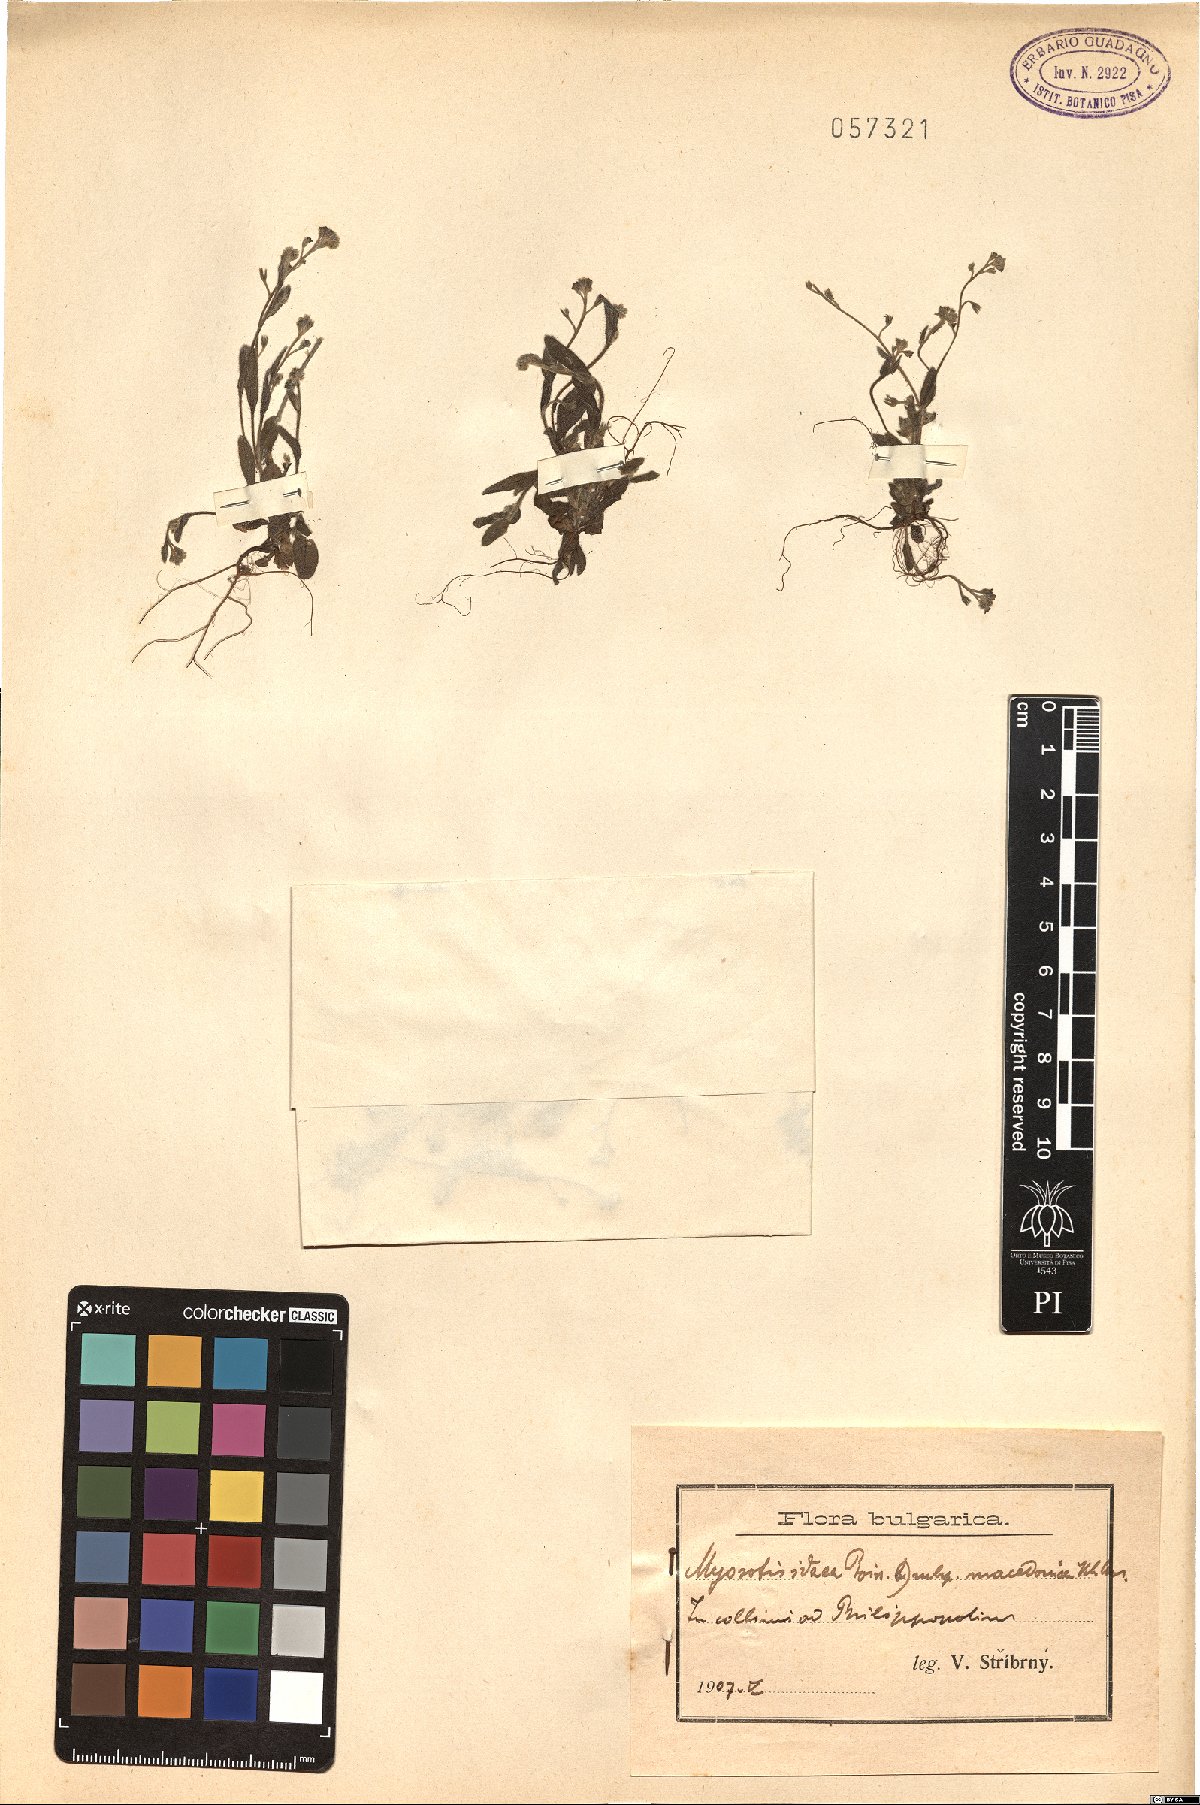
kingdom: Plantae
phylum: Tracheophyta
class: Magnoliopsida
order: Boraginales
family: Boraginaceae
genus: Myosotis
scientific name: Myosotis incrassata
